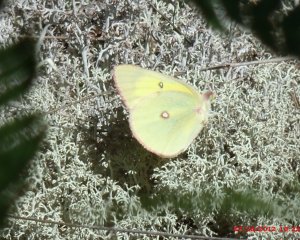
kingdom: Animalia
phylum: Arthropoda
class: Insecta
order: Lepidoptera
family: Pieridae
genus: Colias
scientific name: Colias interior
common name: Pink-edged Sulphur
